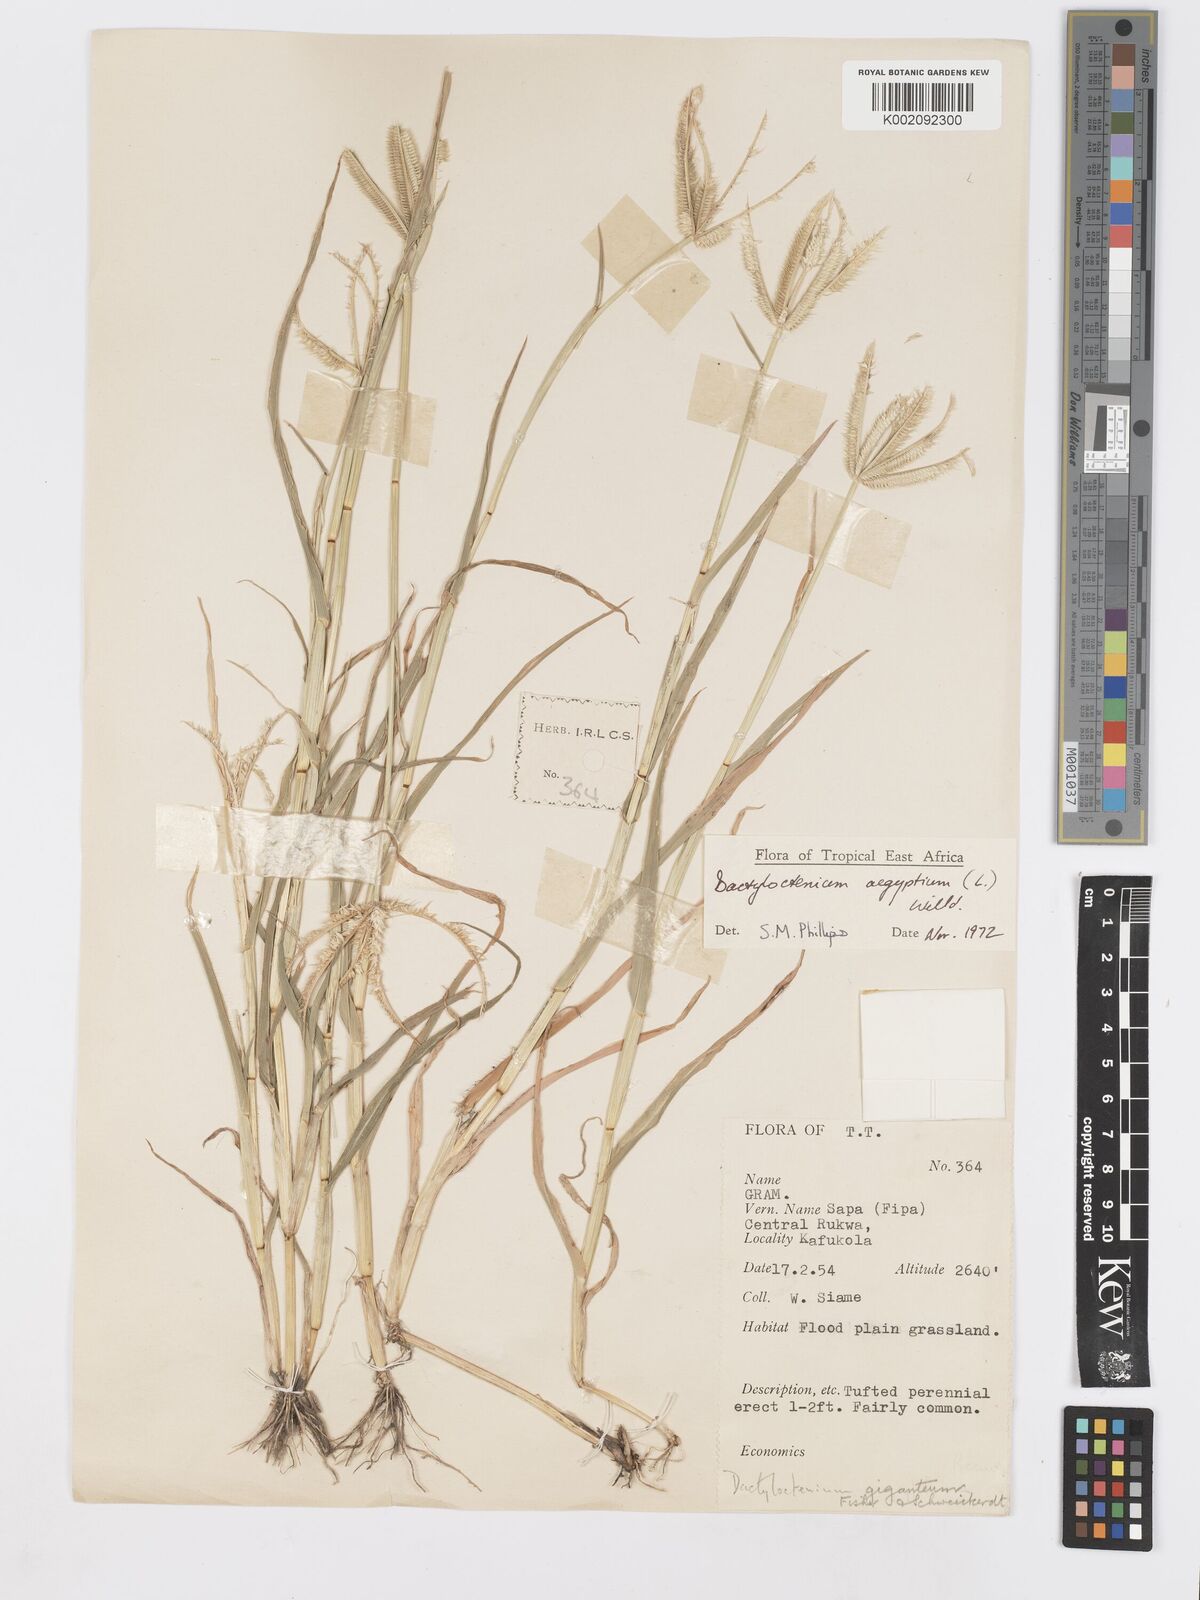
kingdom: Plantae
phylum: Tracheophyta
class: Liliopsida
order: Poales
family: Poaceae
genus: Dactyloctenium
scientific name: Dactyloctenium aegyptium
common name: Egyptian grass
